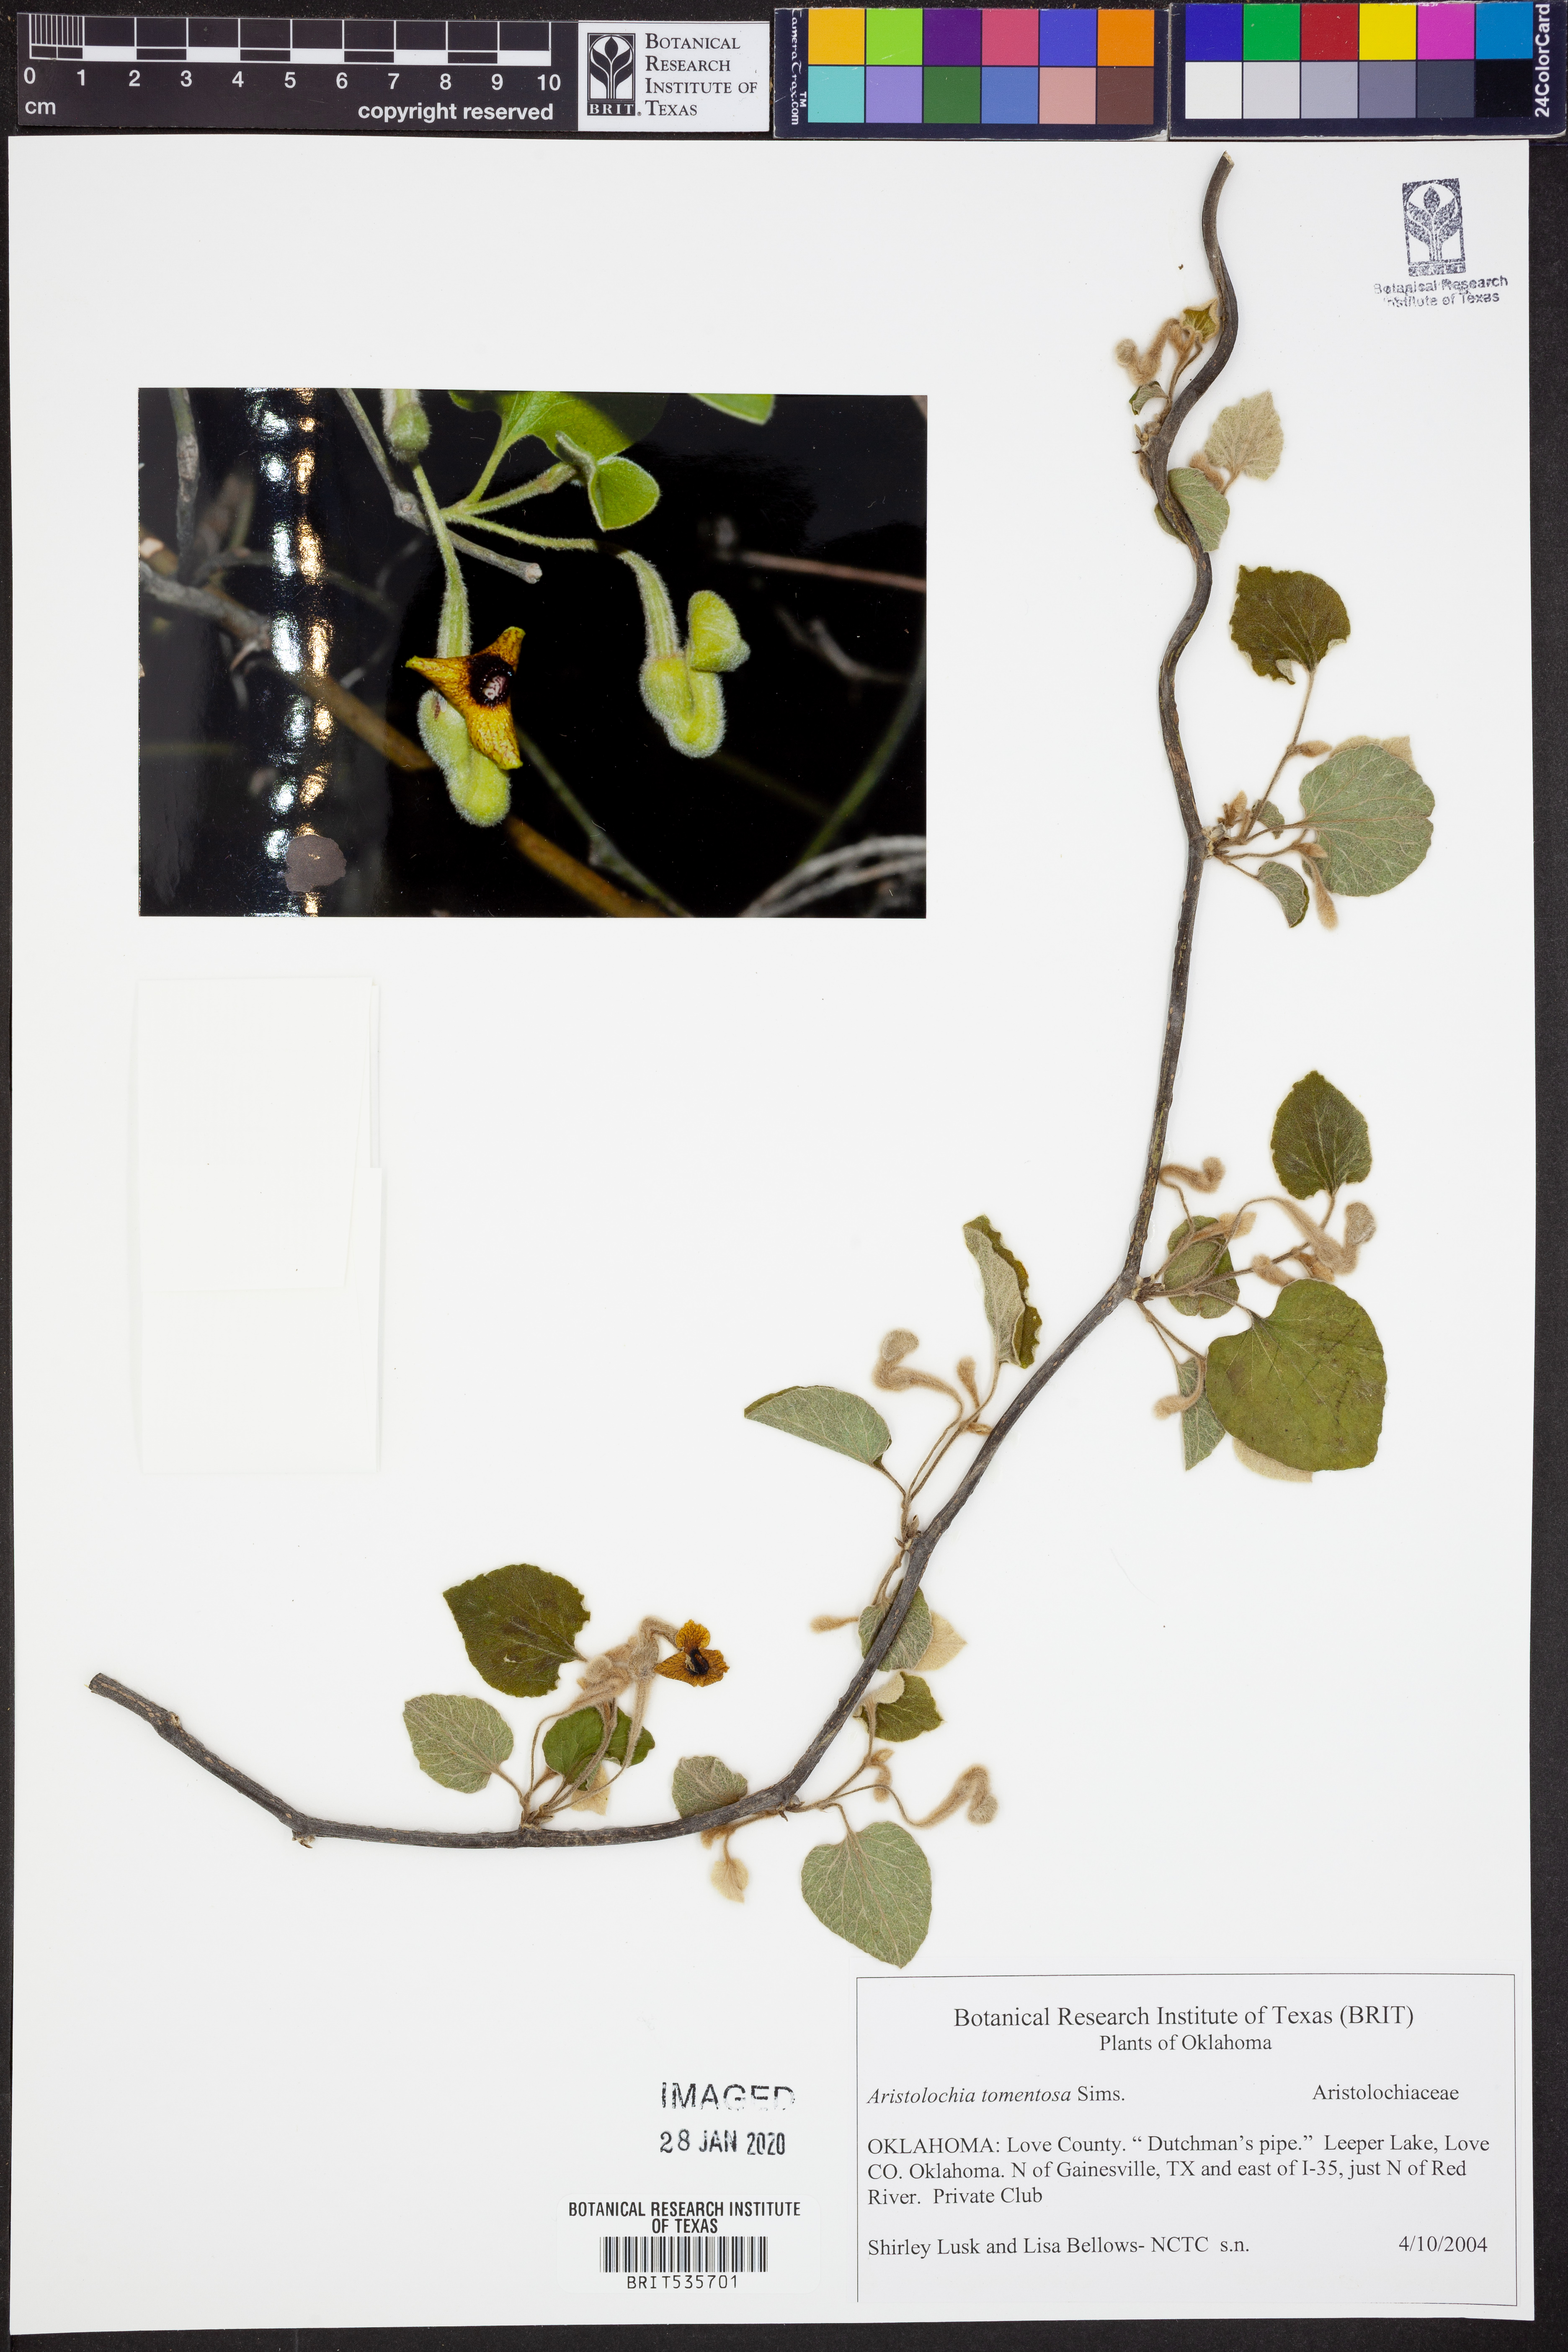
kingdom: Plantae
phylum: Tracheophyta
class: Magnoliopsida
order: Piperales
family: Aristolochiaceae
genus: Isotrema
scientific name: Isotrema tomentosum
